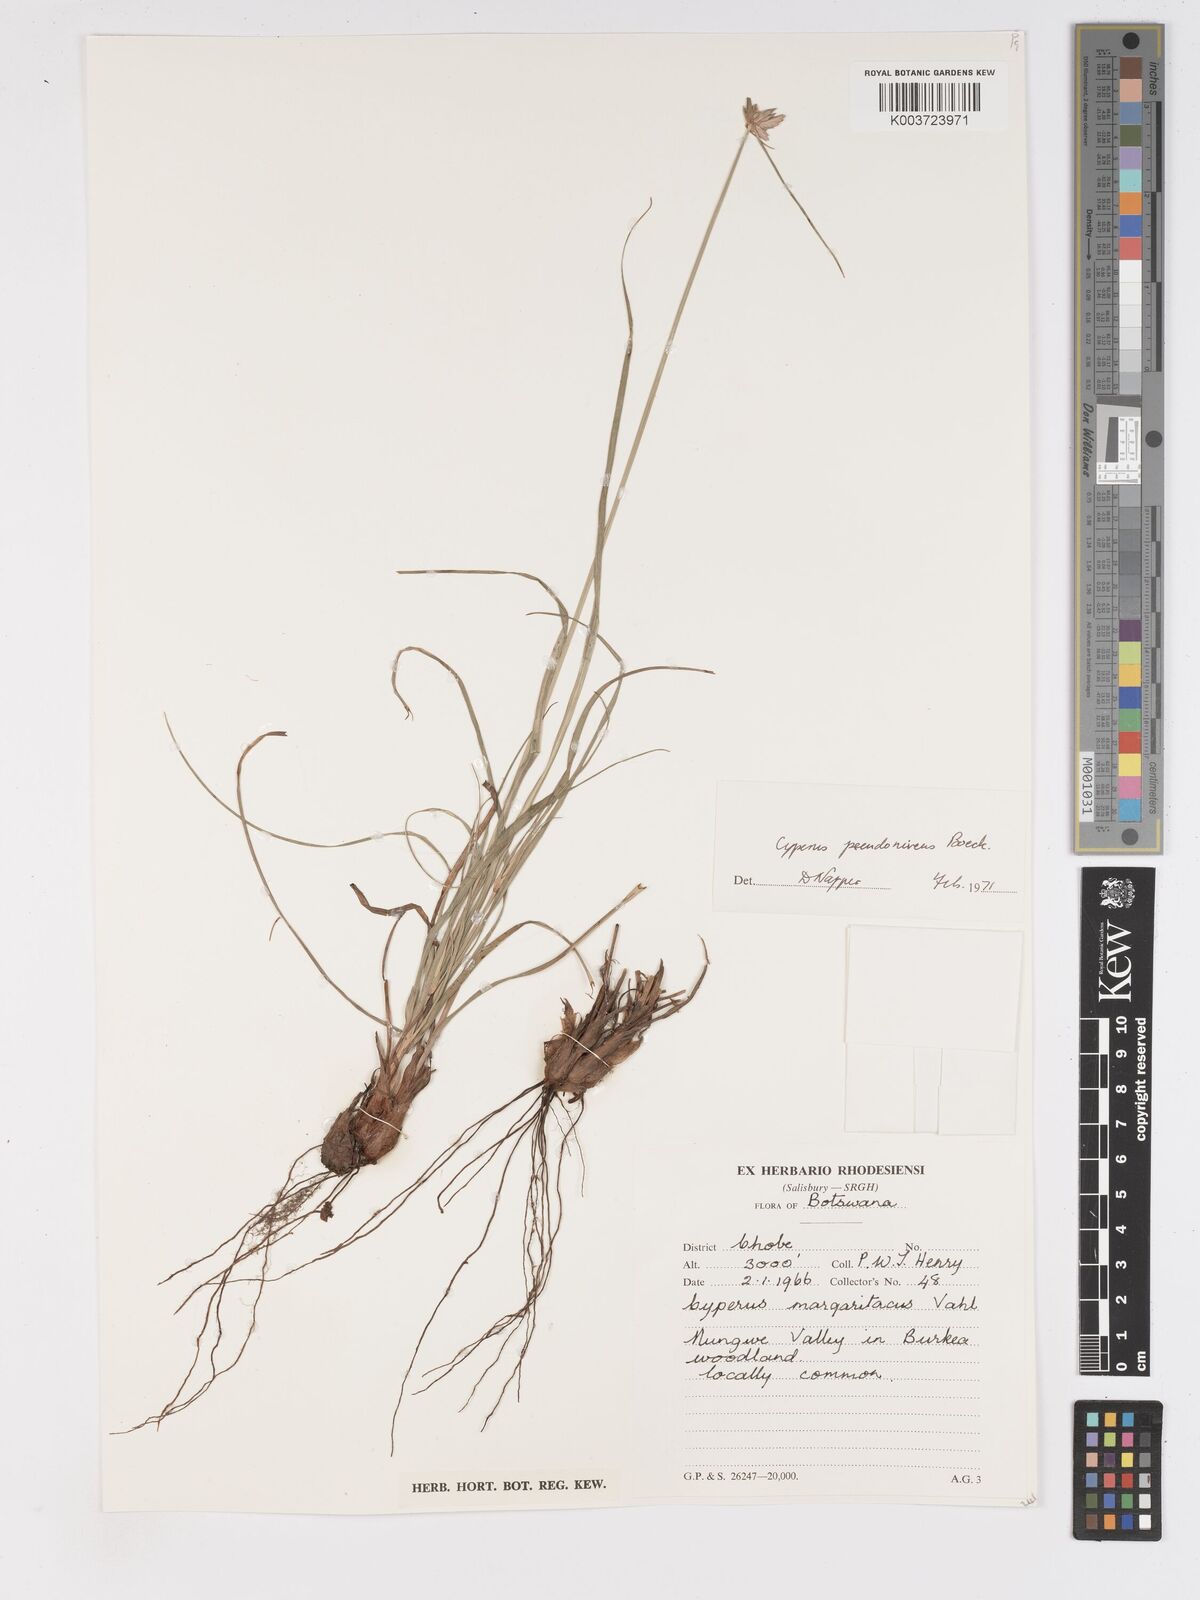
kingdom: Plantae
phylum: Tracheophyta
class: Liliopsida
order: Poales
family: Cyperaceae
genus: Cyperus
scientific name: Cyperus margaritaceus
